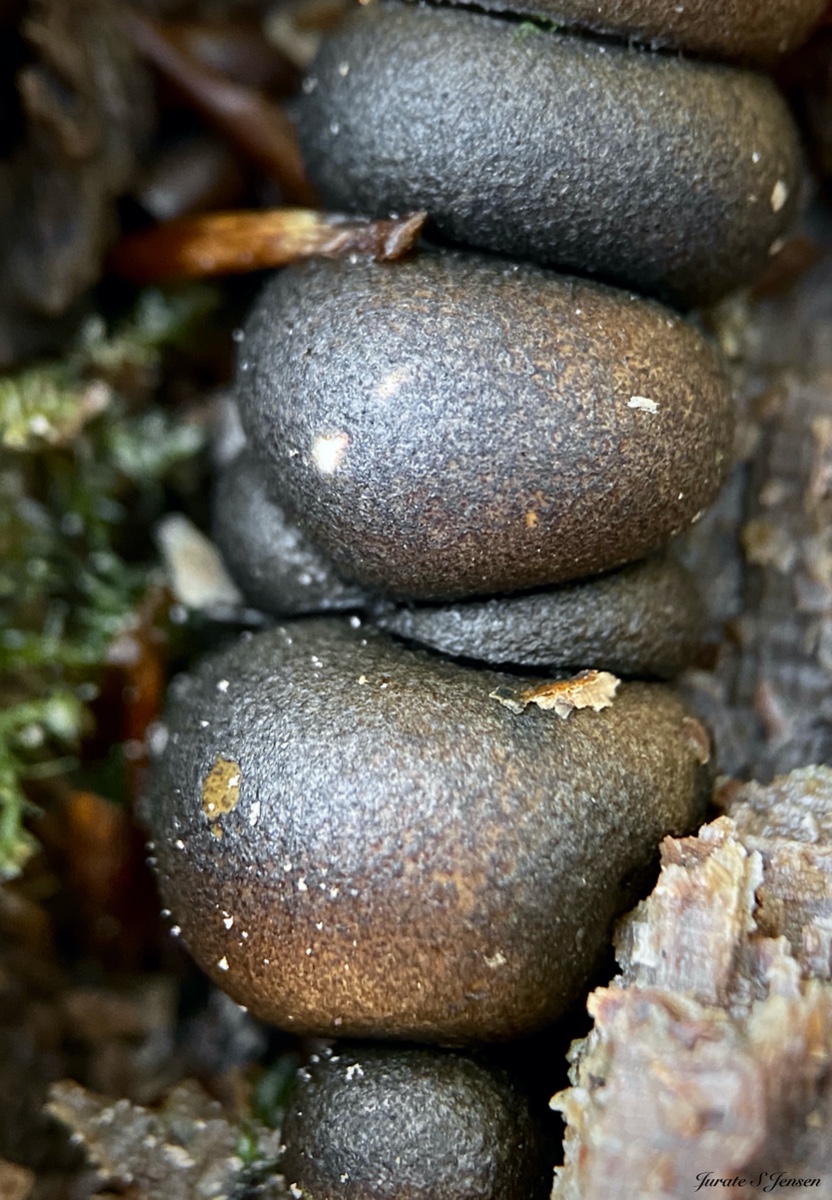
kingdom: Protozoa
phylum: Mycetozoa
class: Myxomycetes
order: Cribrariales
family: Tubiferaceae
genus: Lycogala
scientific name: Lycogala epidendrum
